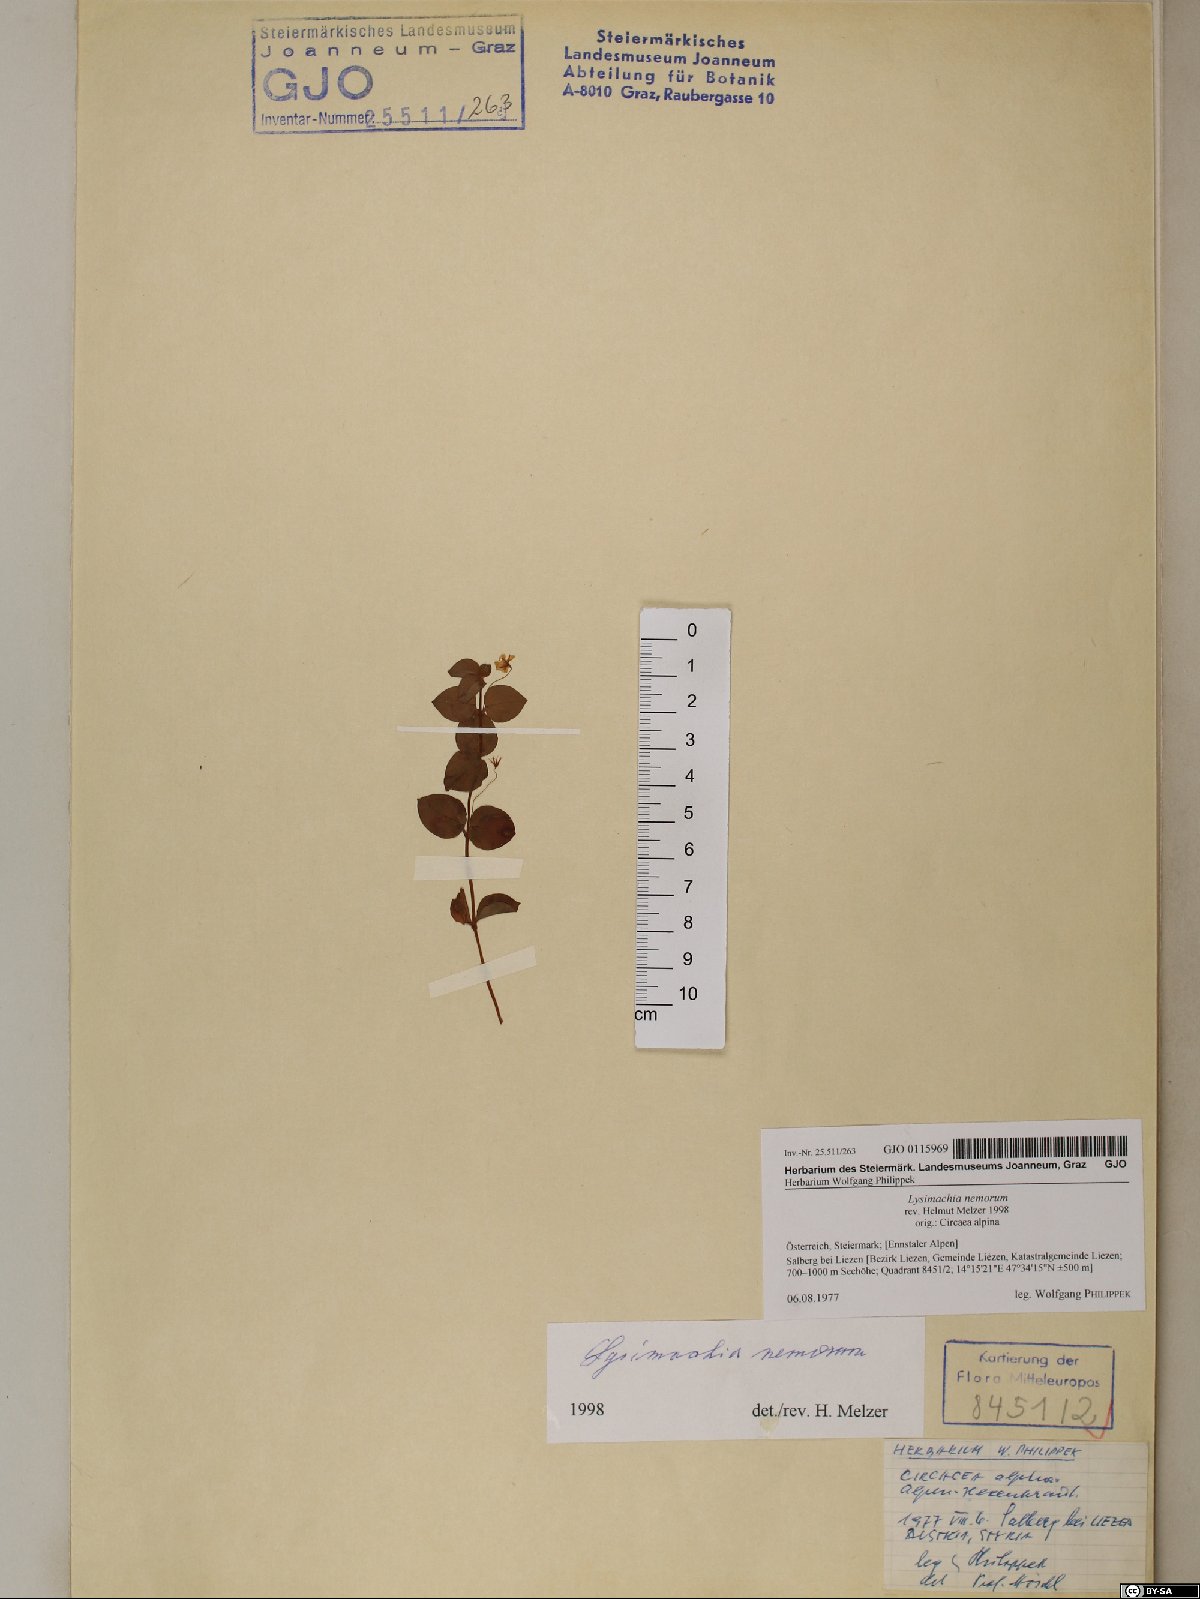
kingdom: Plantae
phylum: Tracheophyta
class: Magnoliopsida
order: Ericales
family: Primulaceae
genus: Lysimachia
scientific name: Lysimachia nemorum
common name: Yellow pimpernel
